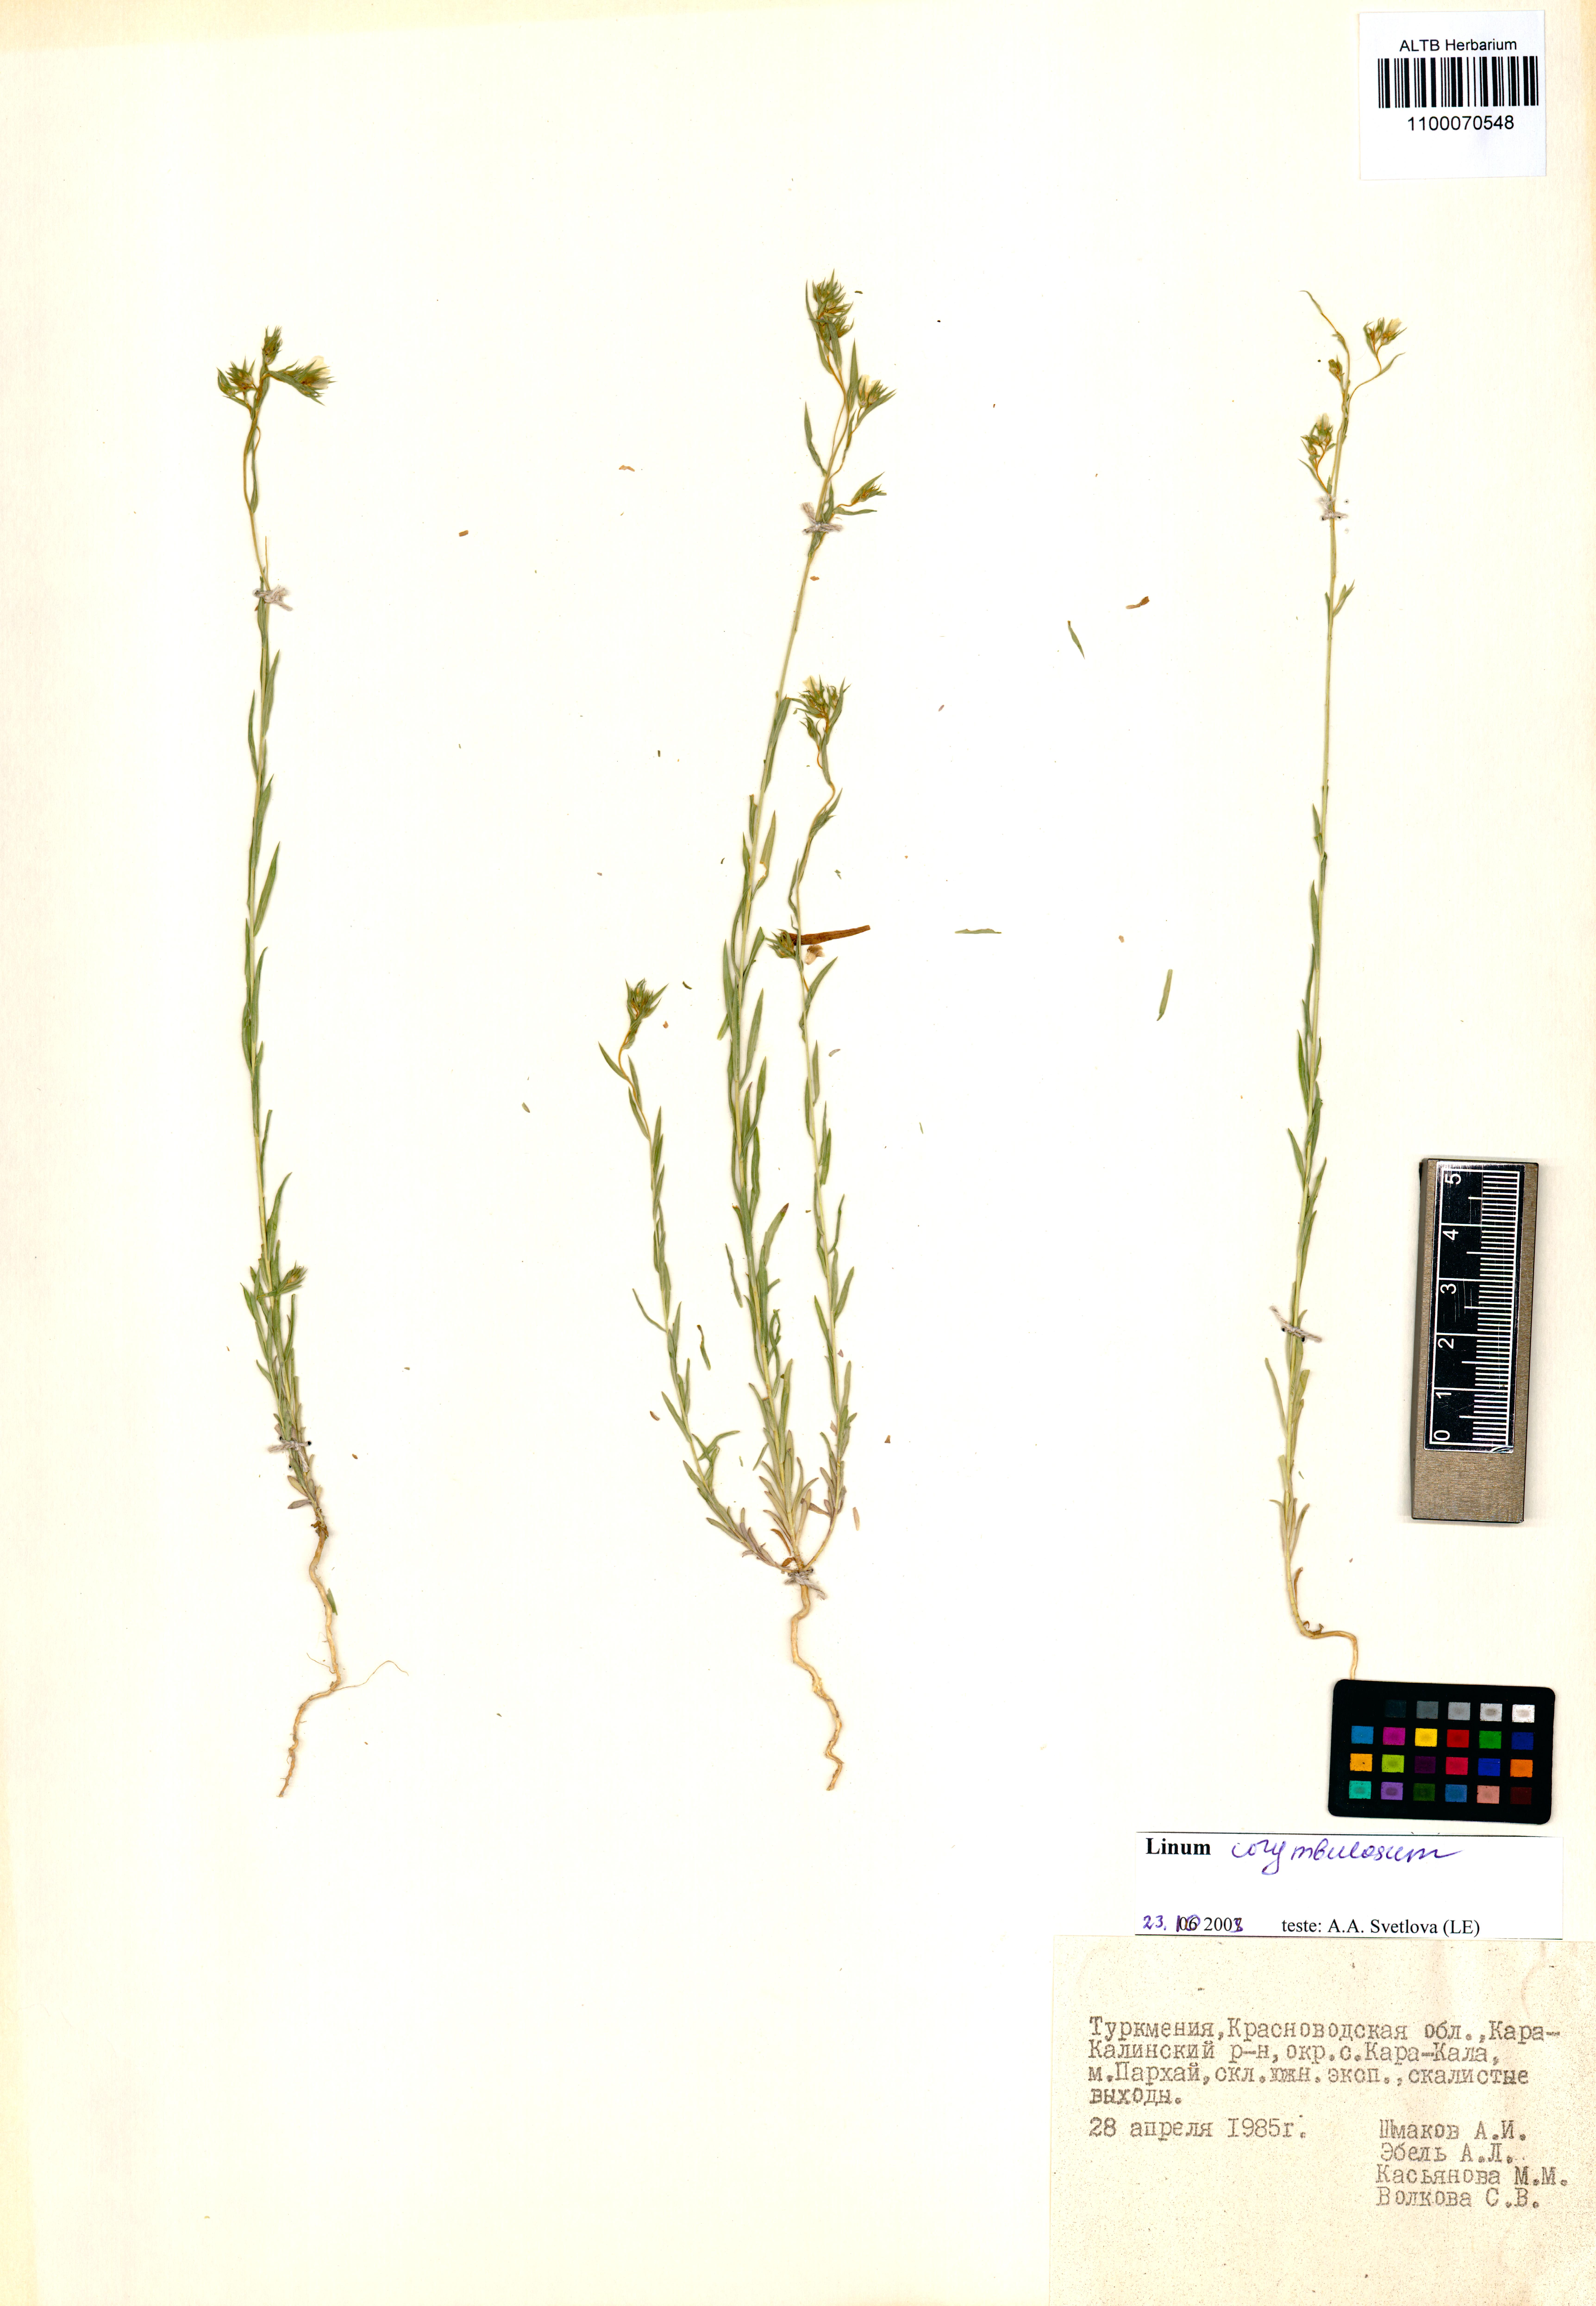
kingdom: Plantae
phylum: Tracheophyta
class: Magnoliopsida
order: Malpighiales
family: Linaceae
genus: Linum
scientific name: Linum corymbulosum
